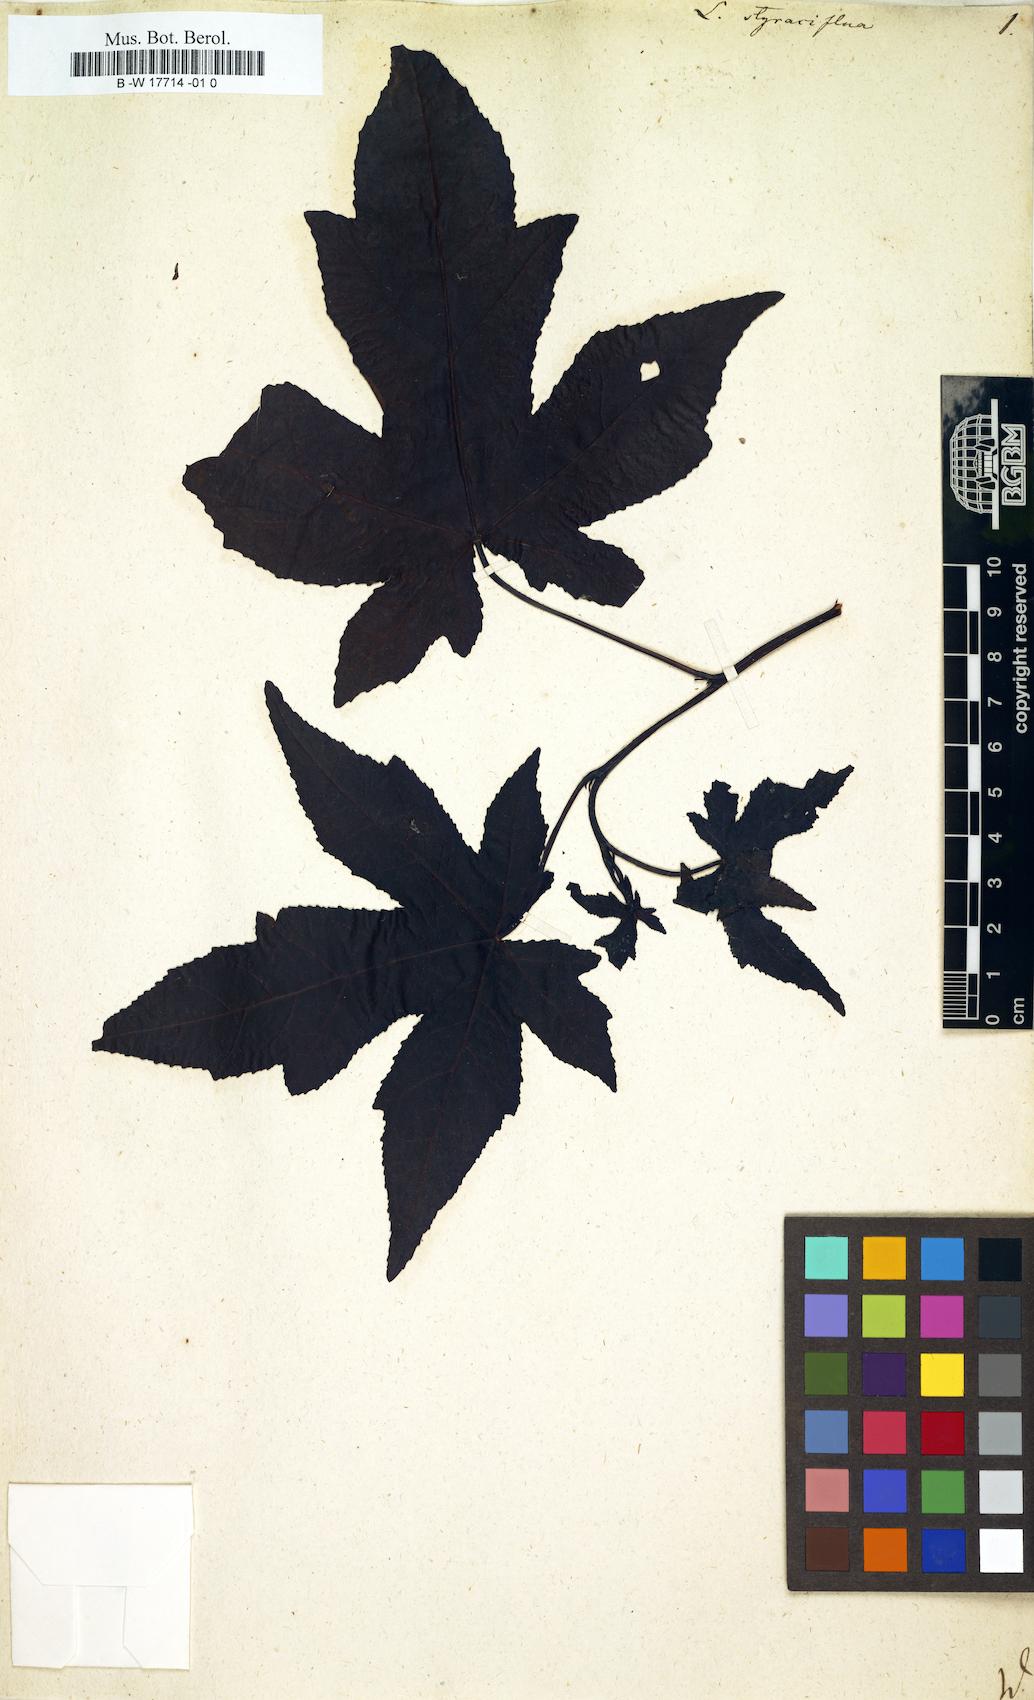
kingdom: Plantae
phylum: Tracheophyta
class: Magnoliopsida
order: Saxifragales
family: Altingiaceae
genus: Liquidambar
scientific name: Liquidambar styraciflua
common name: Sweet gum
